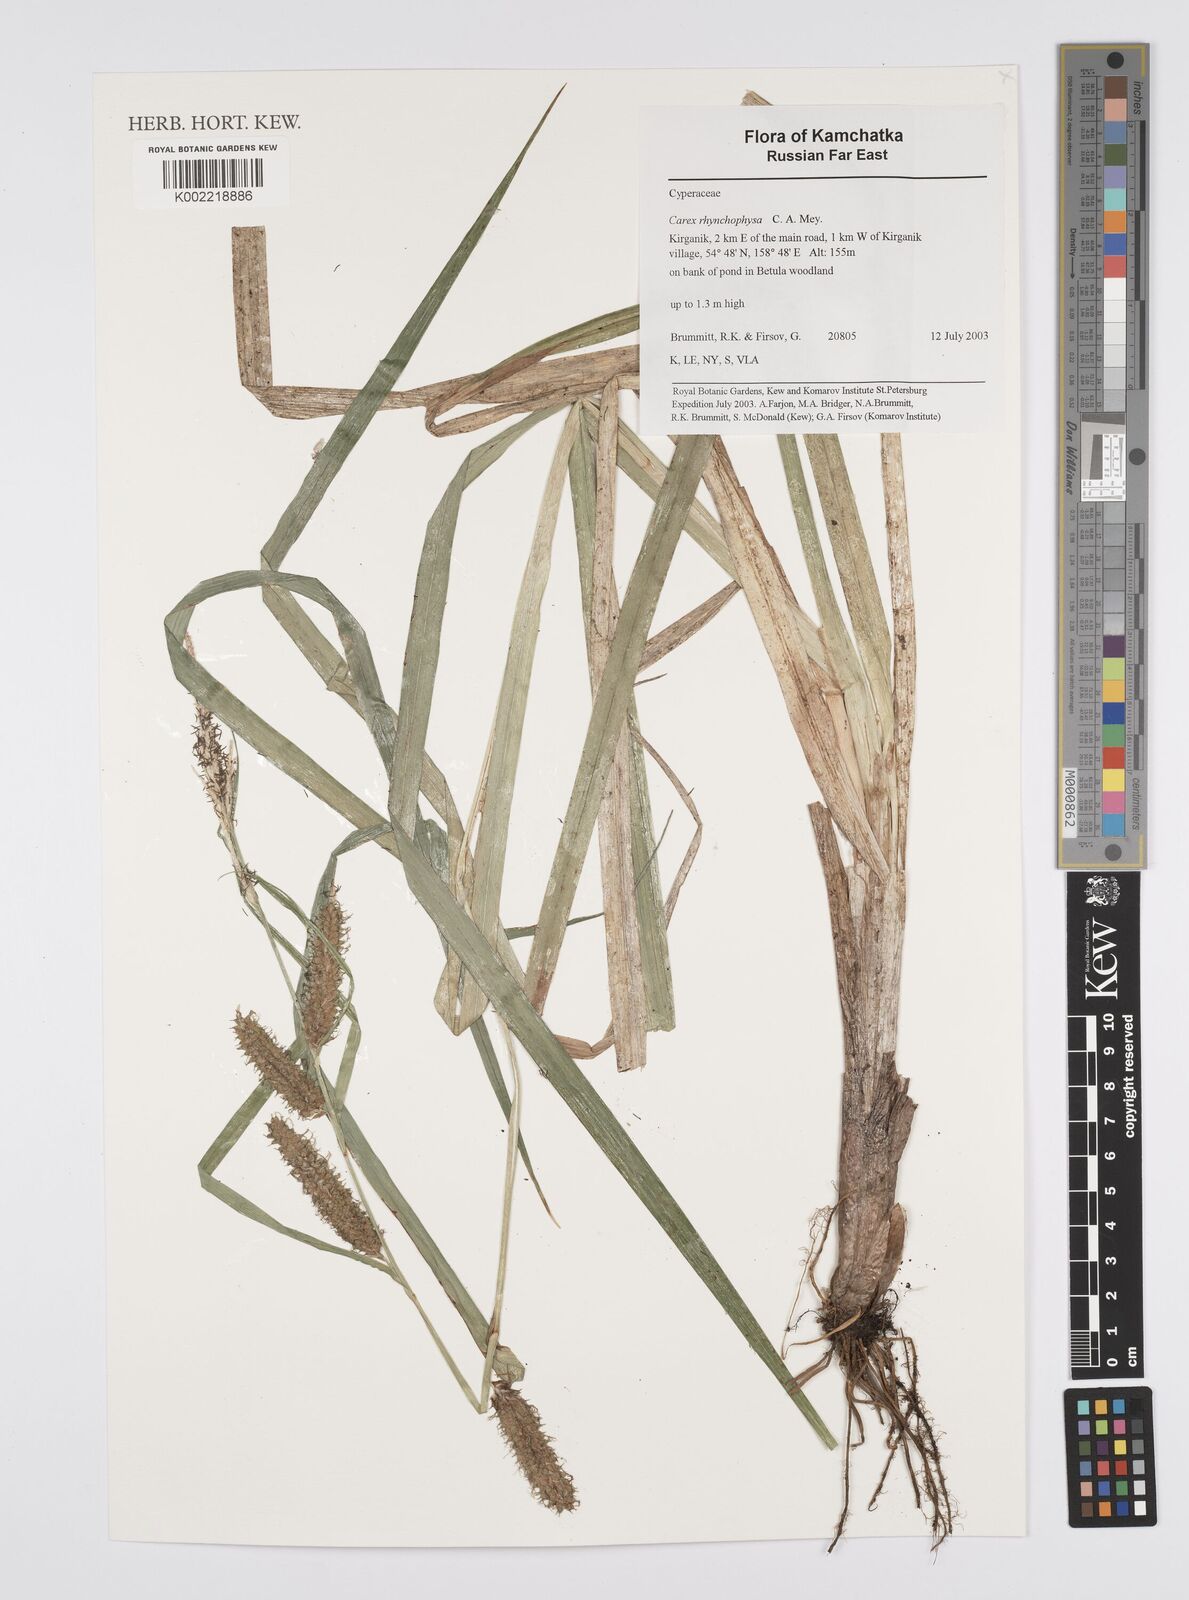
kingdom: Plantae
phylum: Tracheophyta
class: Liliopsida
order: Poales
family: Cyperaceae
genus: Carex
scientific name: Carex utriculata
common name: Beaked sedge
